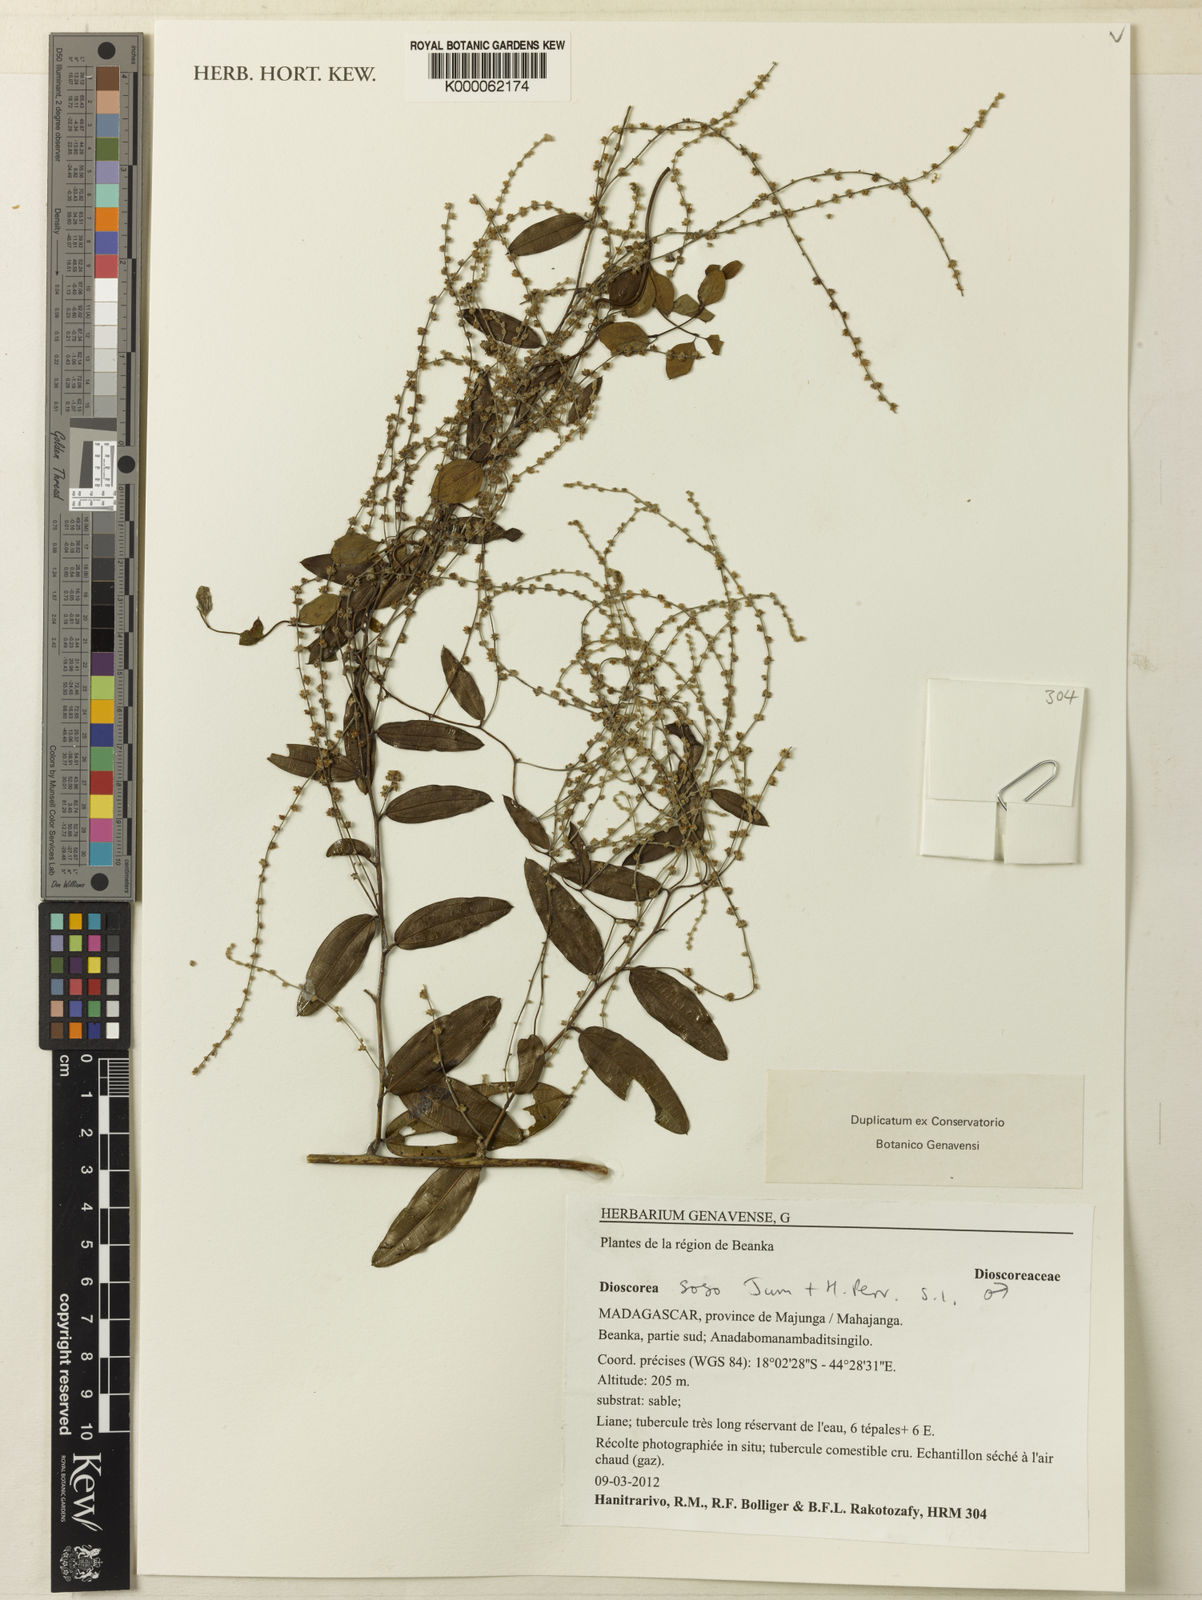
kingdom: Plantae
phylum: Tracheophyta
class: Liliopsida
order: Dioscoreales
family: Dioscoreaceae
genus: Dioscorea
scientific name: Dioscorea soso
